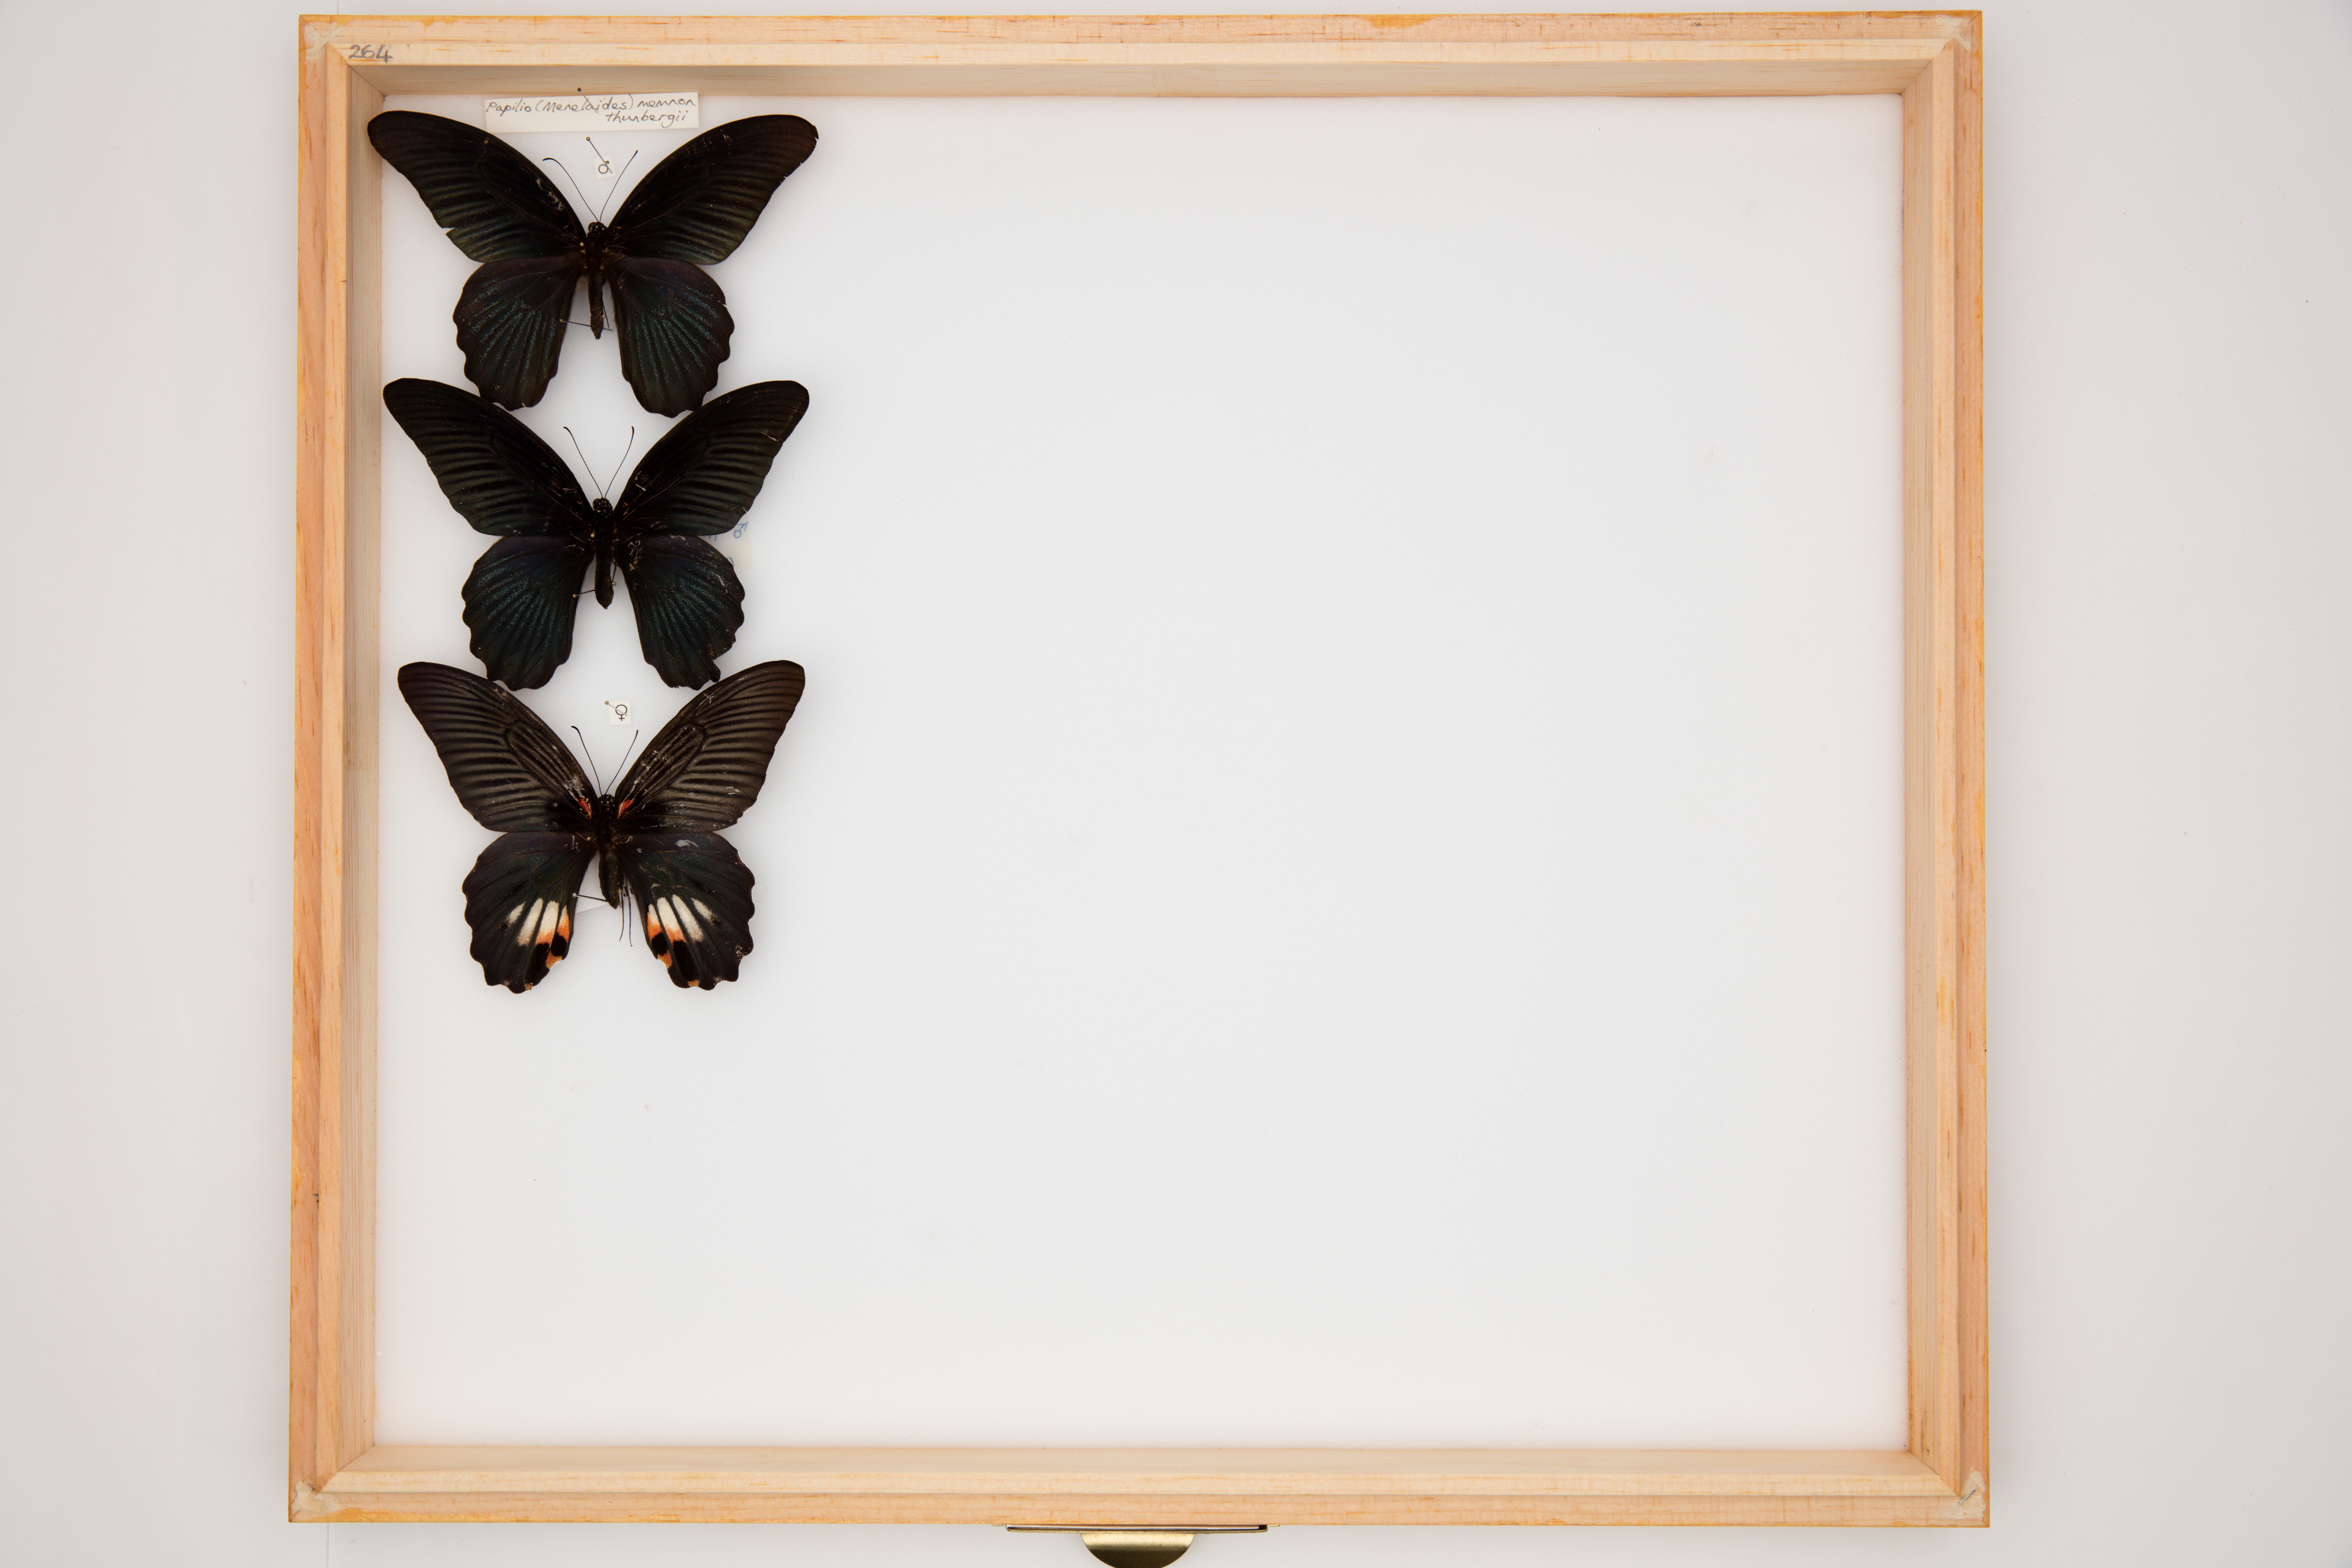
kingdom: Animalia
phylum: Arthropoda
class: Insecta
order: Lepidoptera
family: Papilionidae
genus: Papilio
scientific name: Papilio memnon
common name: Great mormon
